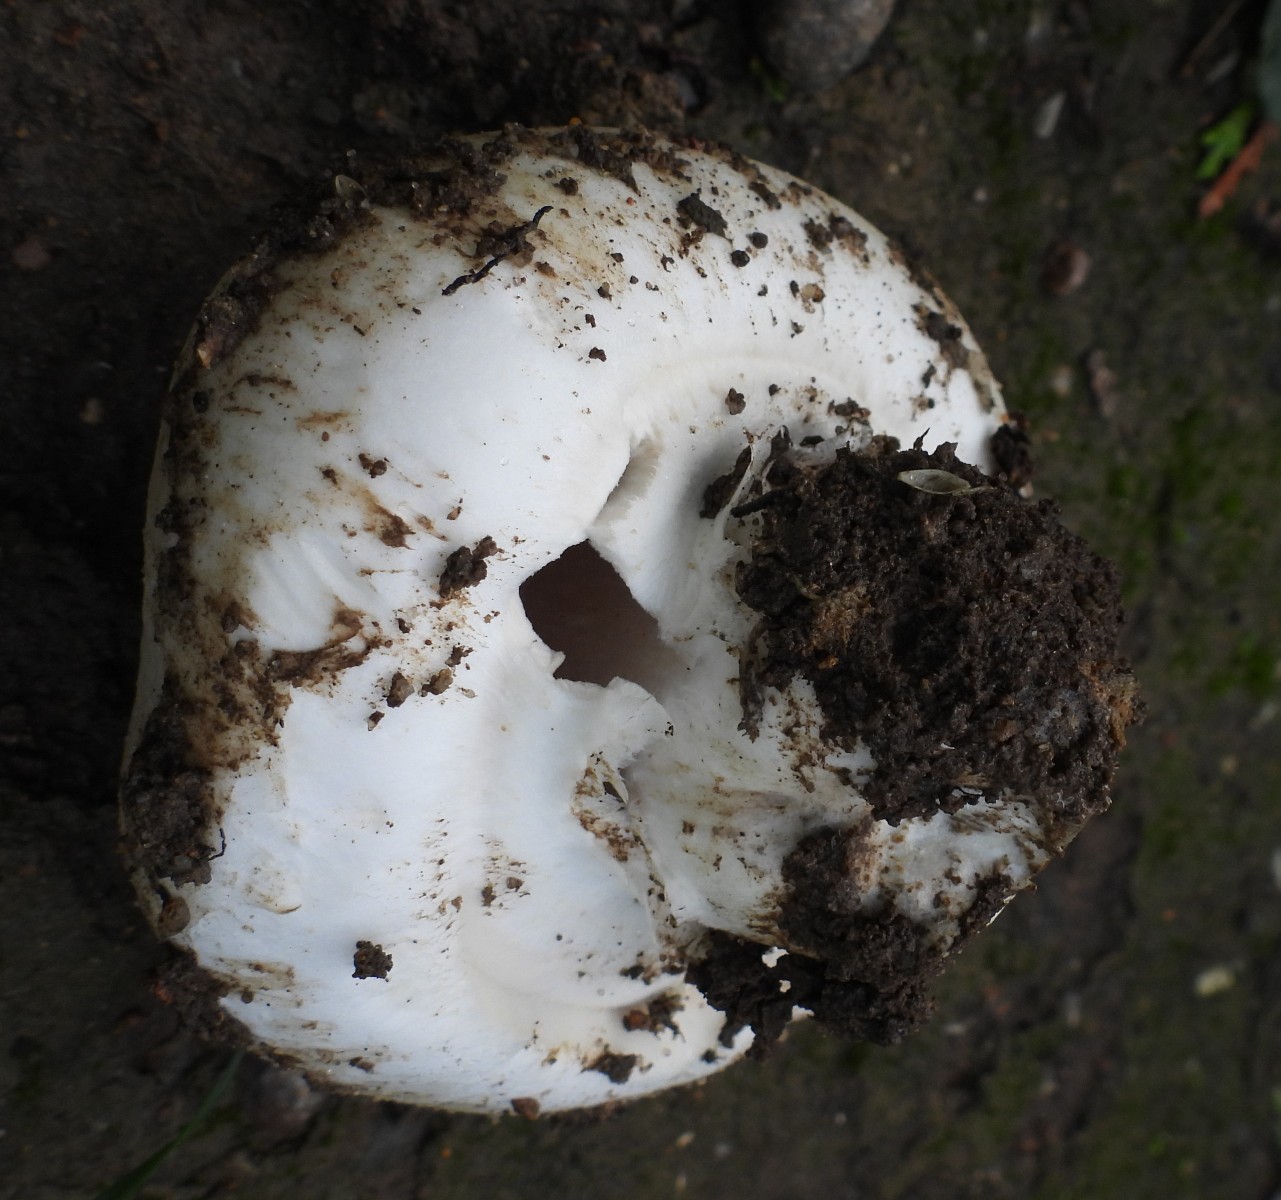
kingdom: Fungi
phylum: Basidiomycota
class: Agaricomycetes
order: Agaricales
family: Agaricaceae
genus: Agaricus
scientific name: Agaricus bitorquis
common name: vej-champignon
